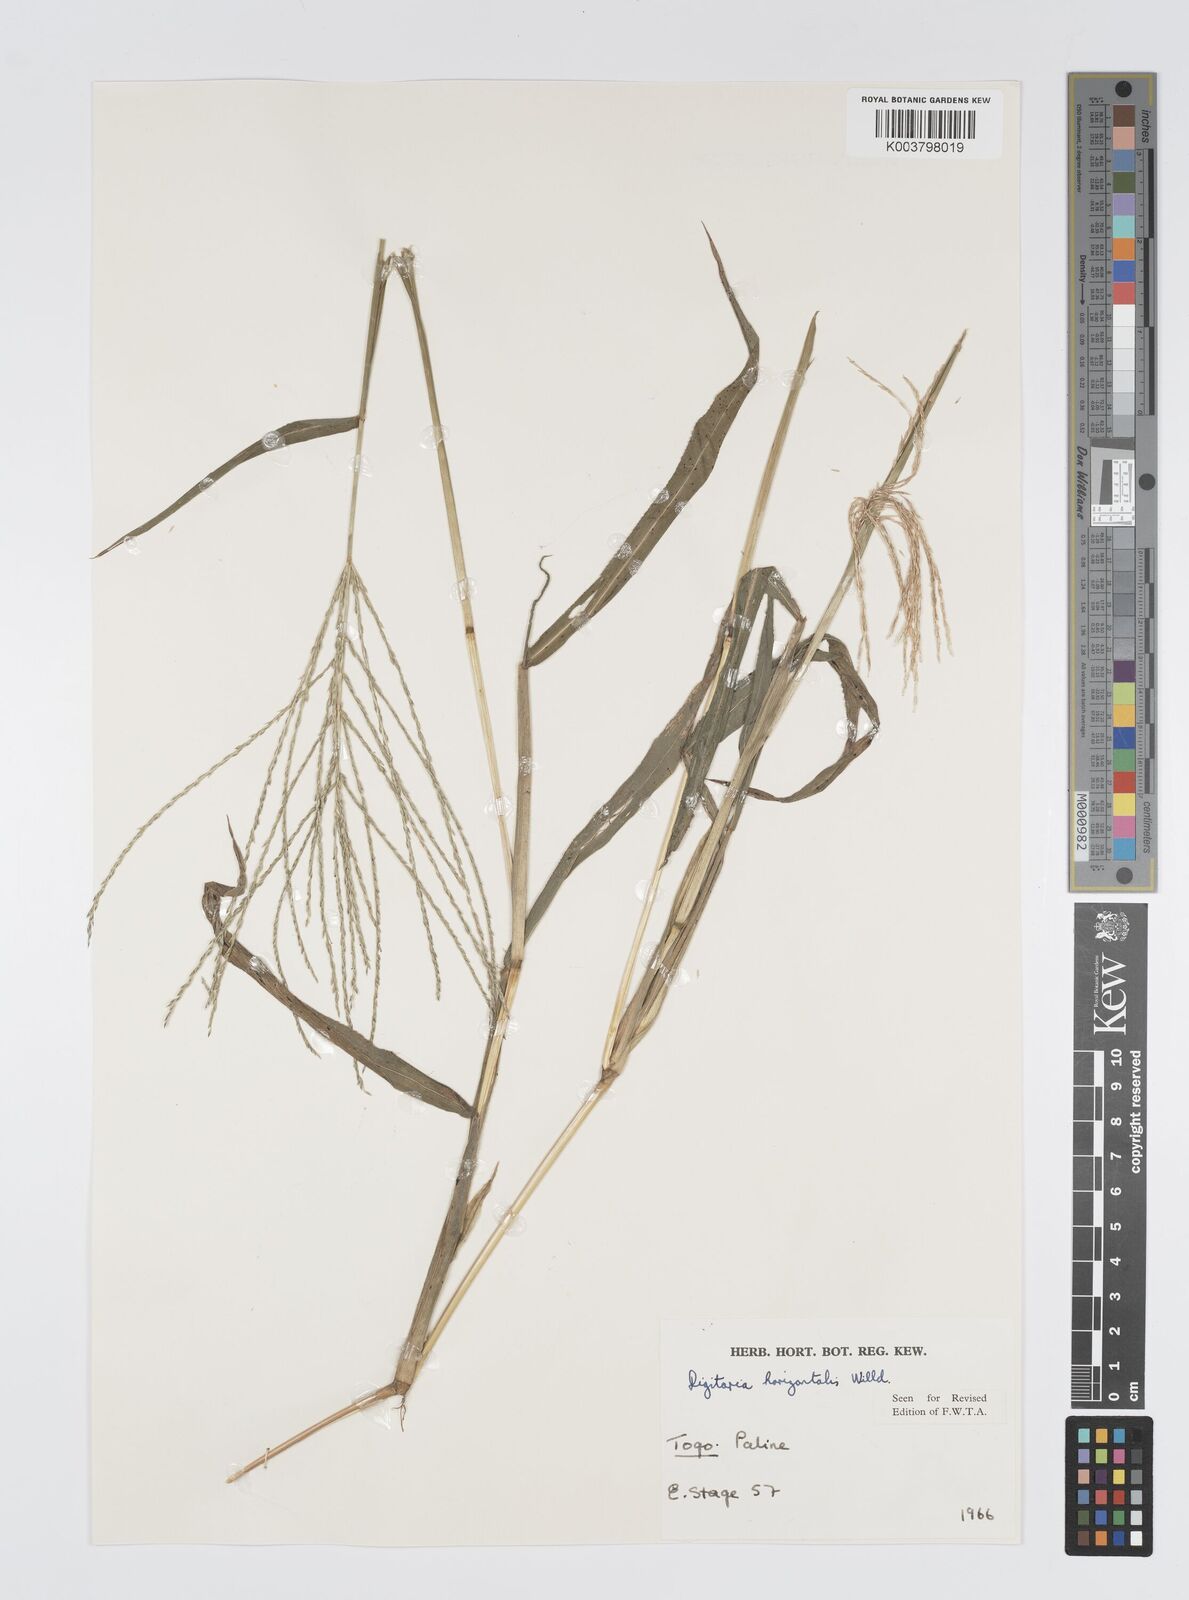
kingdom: Plantae
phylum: Tracheophyta
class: Liliopsida
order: Poales
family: Poaceae
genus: Digitaria
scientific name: Digitaria horizontalis
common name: Jamaican crabgrass
